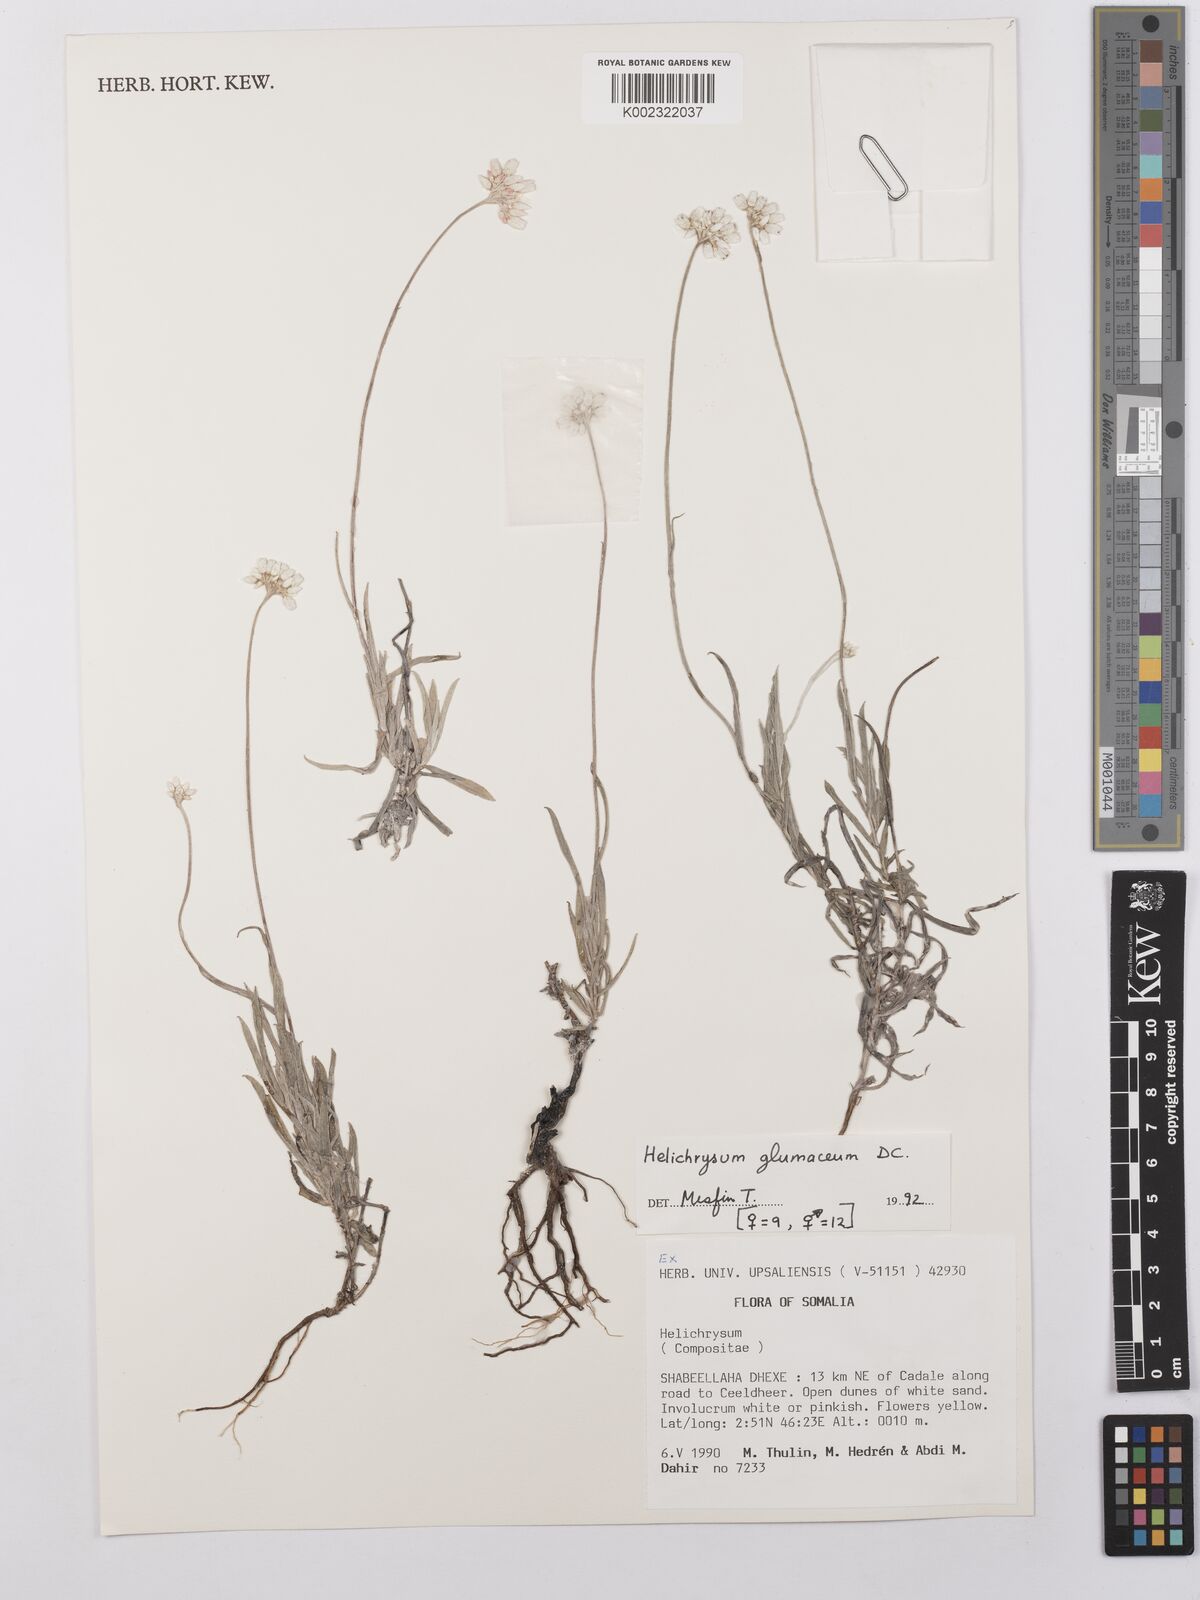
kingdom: Plantae
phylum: Tracheophyta
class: Magnoliopsida
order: Asterales
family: Asteraceae
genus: Helichrysum
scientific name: Helichrysum
